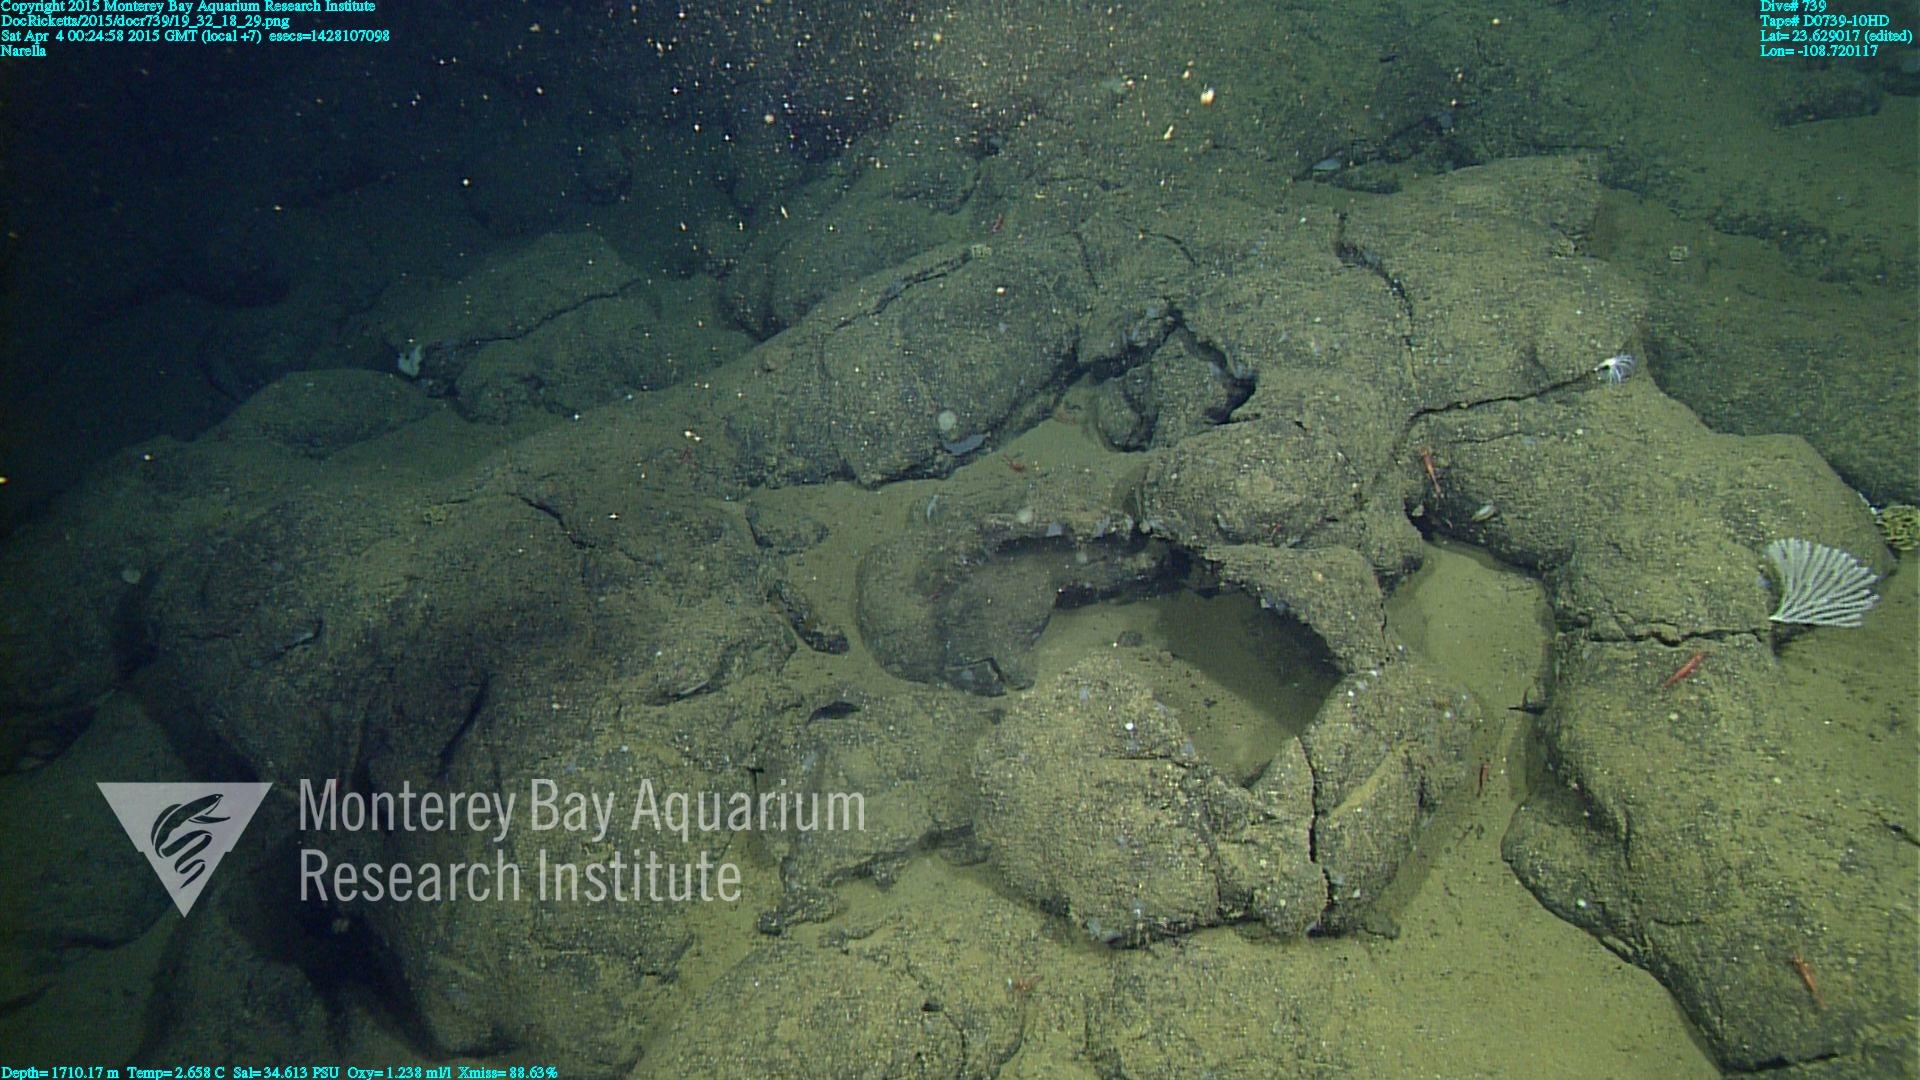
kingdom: Animalia
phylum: Cnidaria
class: Anthozoa
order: Scleralcyonacea
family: Primnoidae
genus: Narella
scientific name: Narella
